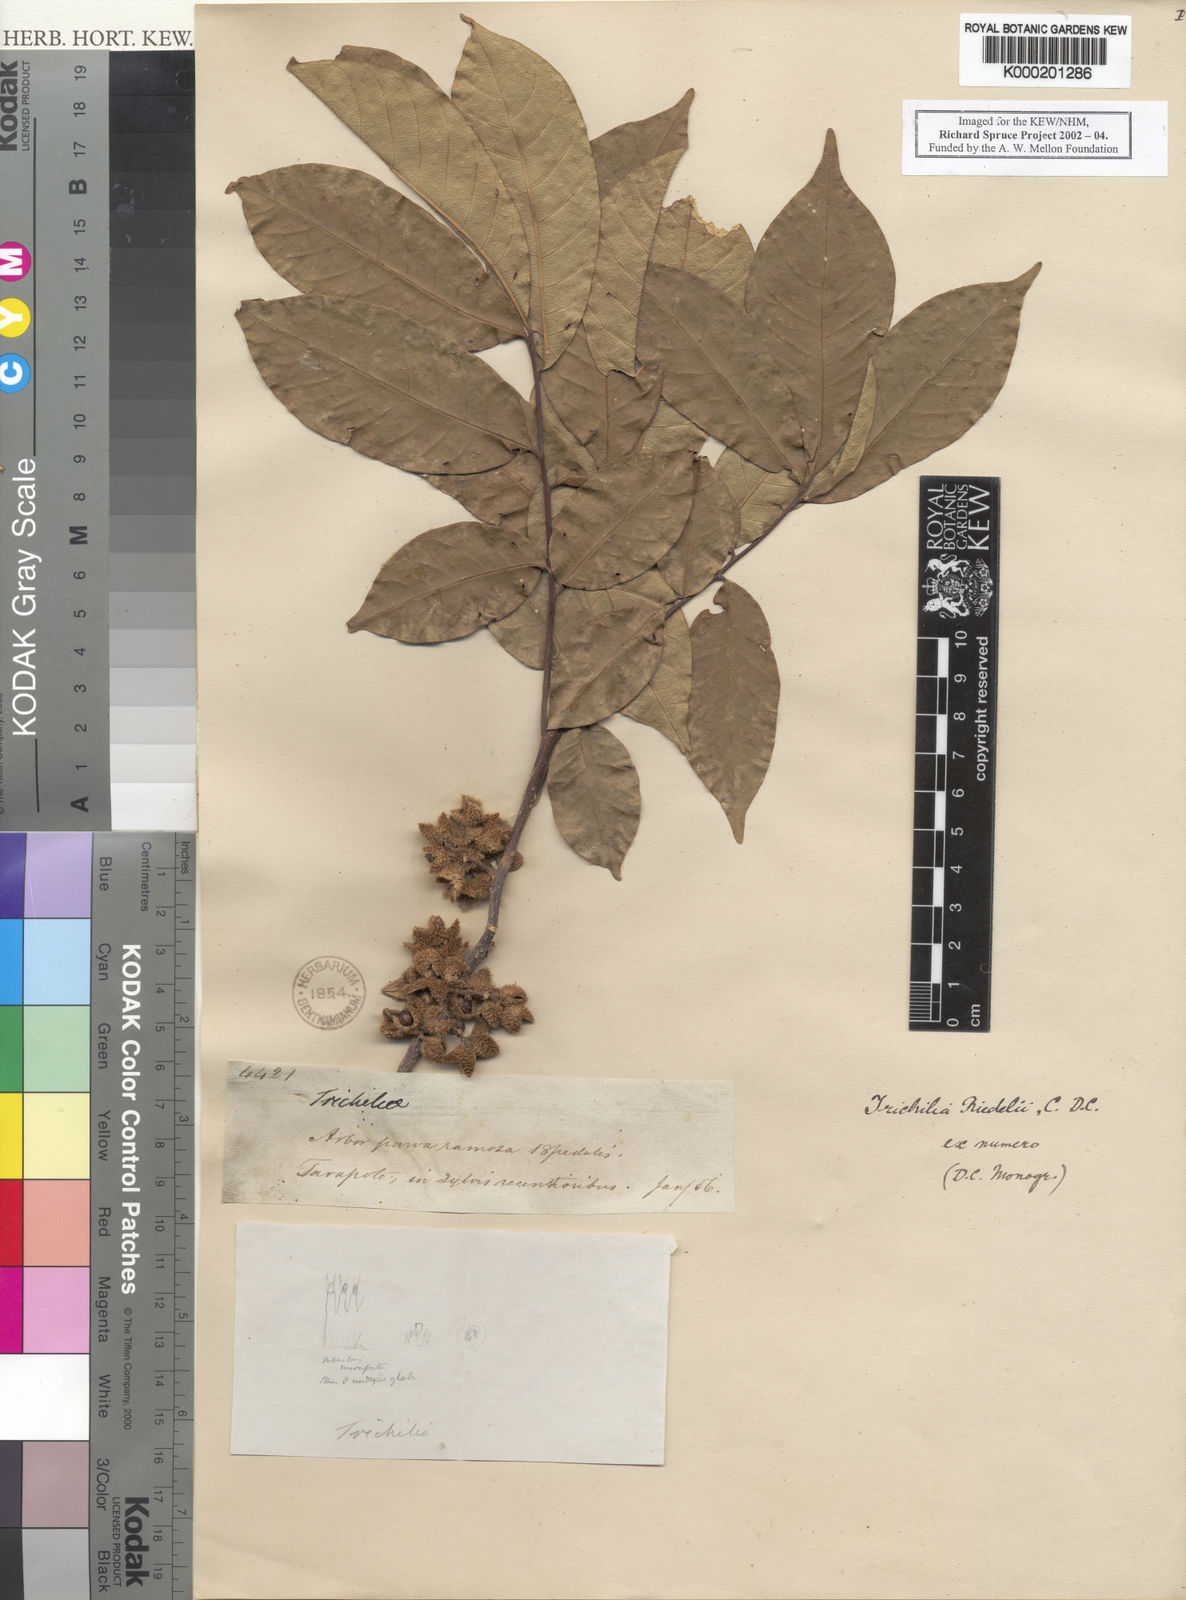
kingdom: Plantae
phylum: Tracheophyta
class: Magnoliopsida
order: Sapindales
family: Meliaceae
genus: Trichilia
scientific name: Trichilia pallida
